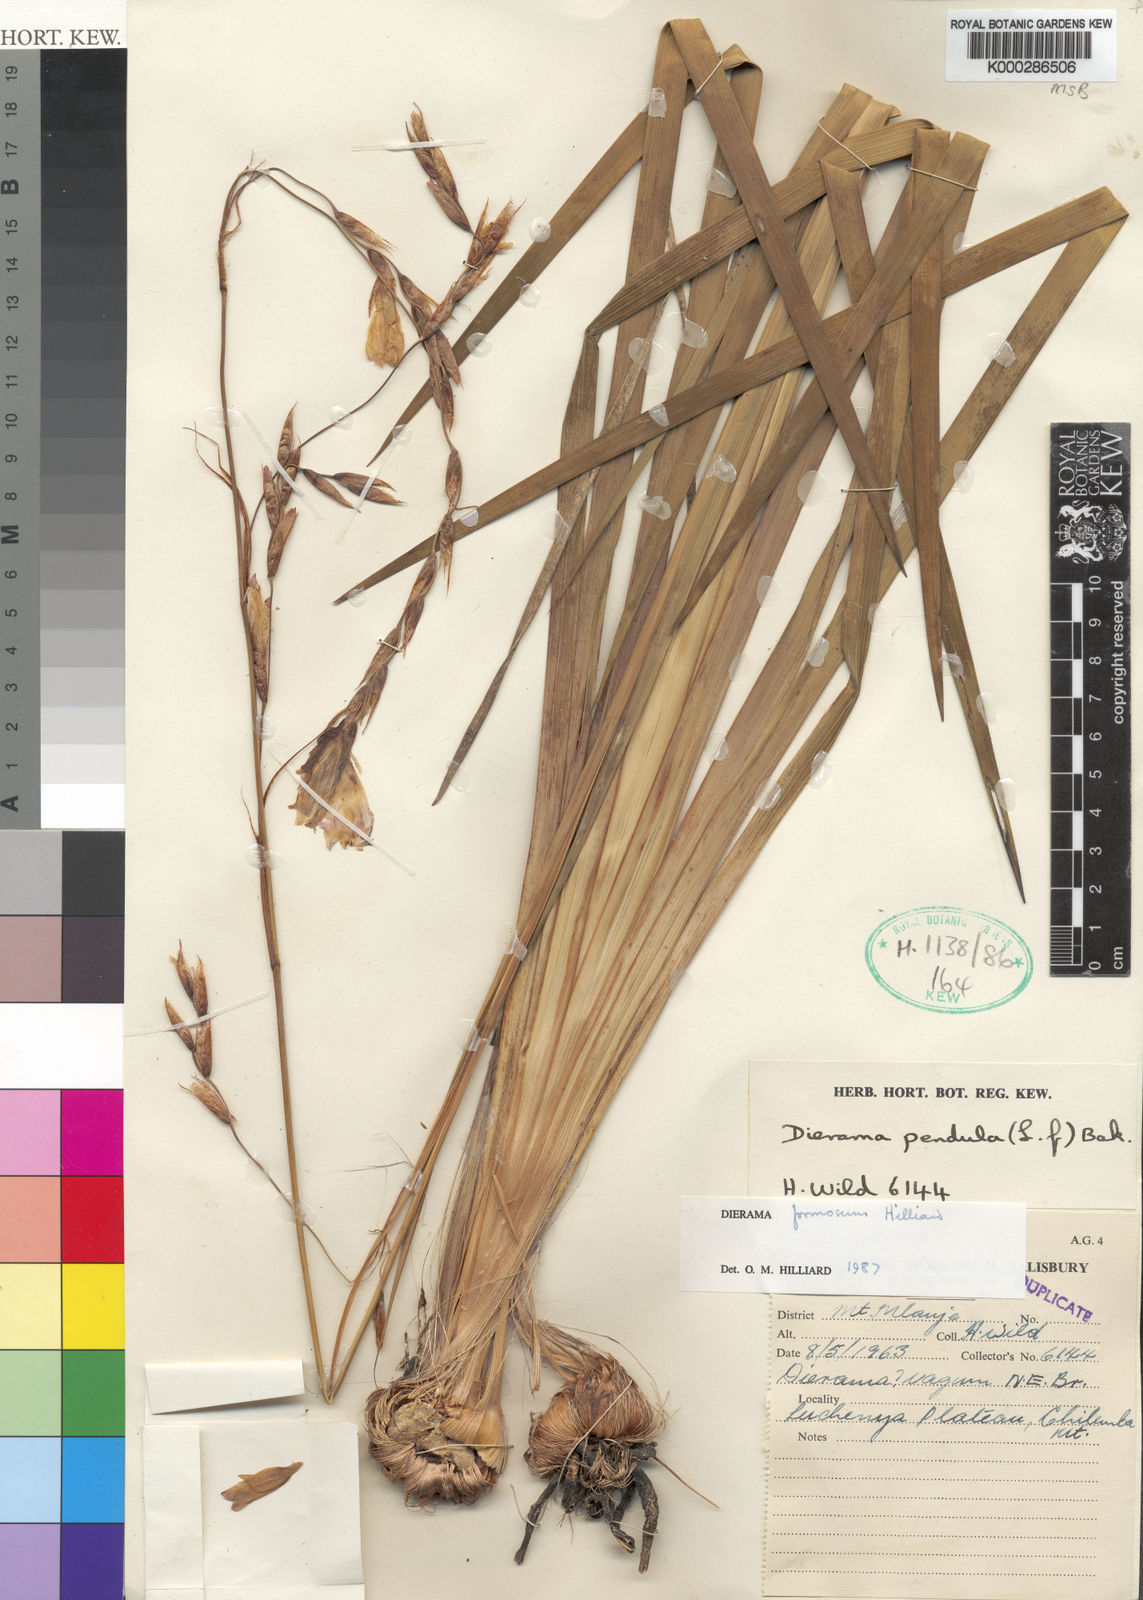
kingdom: Plantae
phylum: Tracheophyta
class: Liliopsida
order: Asparagales
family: Iridaceae
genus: Dierama
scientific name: Dierama formosum
